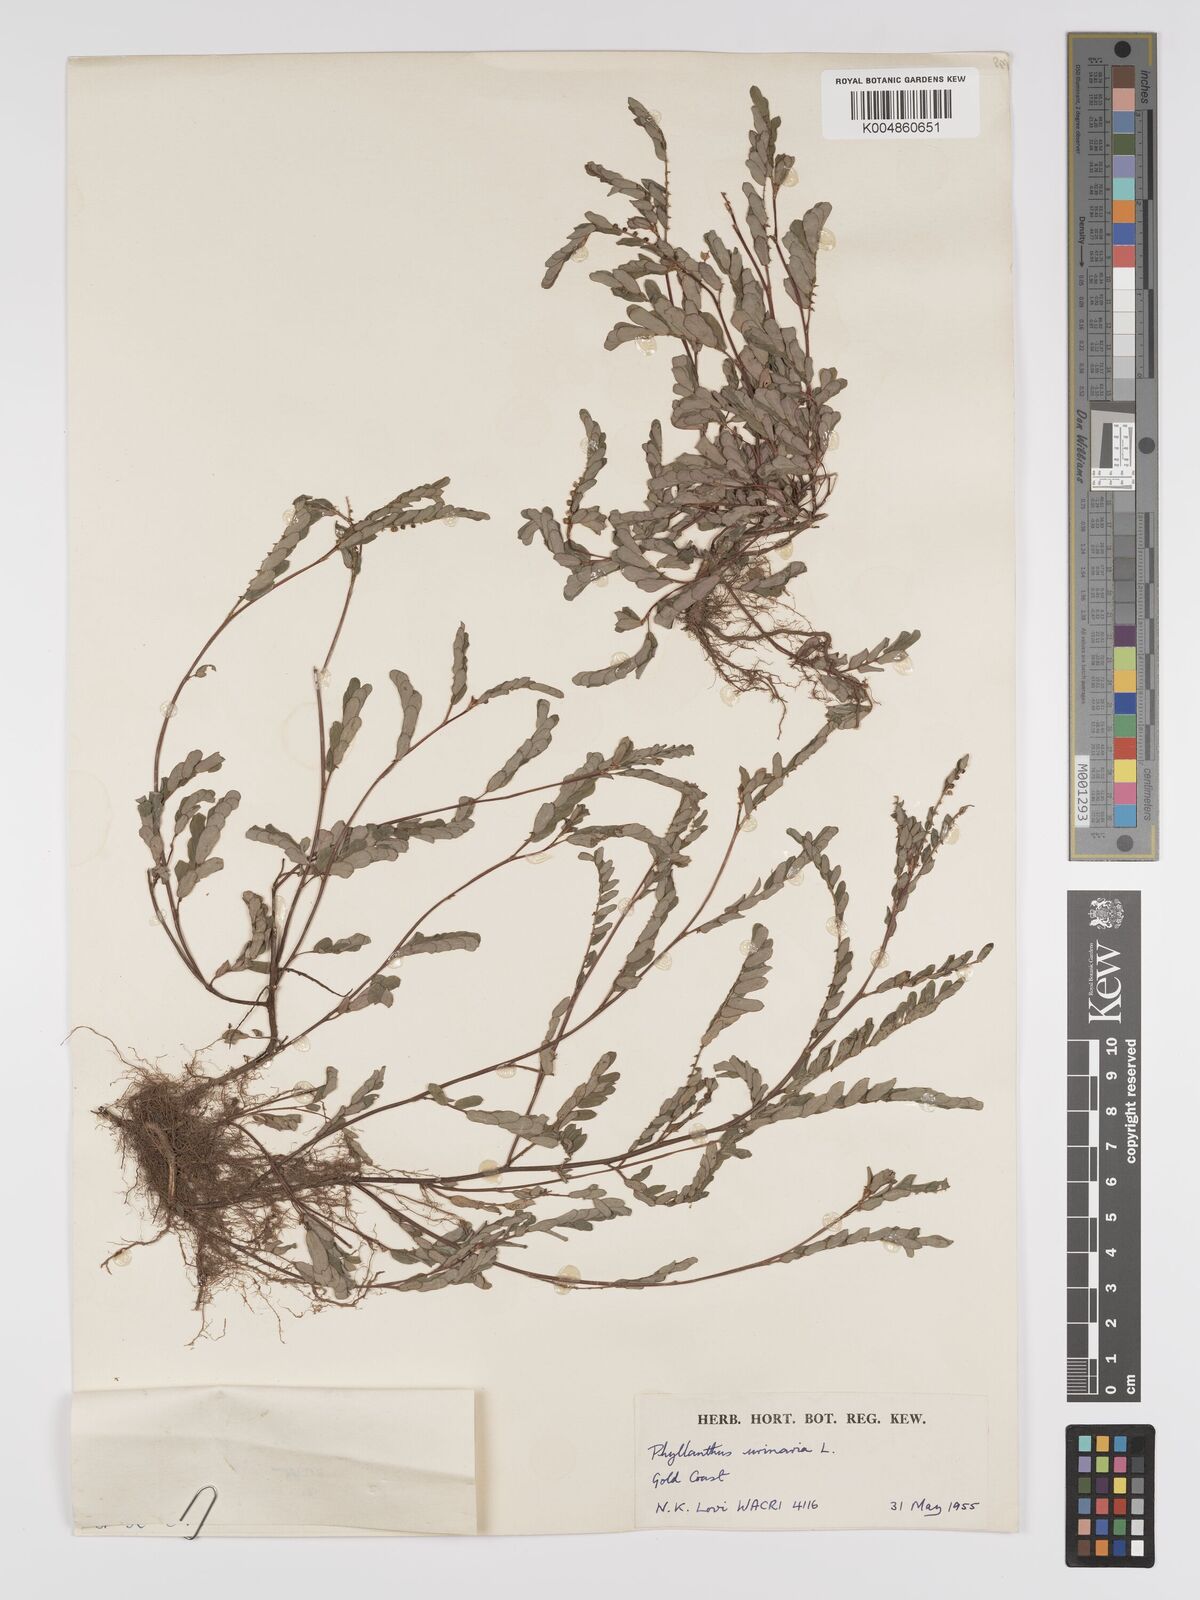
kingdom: Plantae
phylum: Tracheophyta
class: Magnoliopsida
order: Malpighiales
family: Phyllanthaceae
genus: Phyllanthus
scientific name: Phyllanthus urinaria
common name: Chamber bitter
